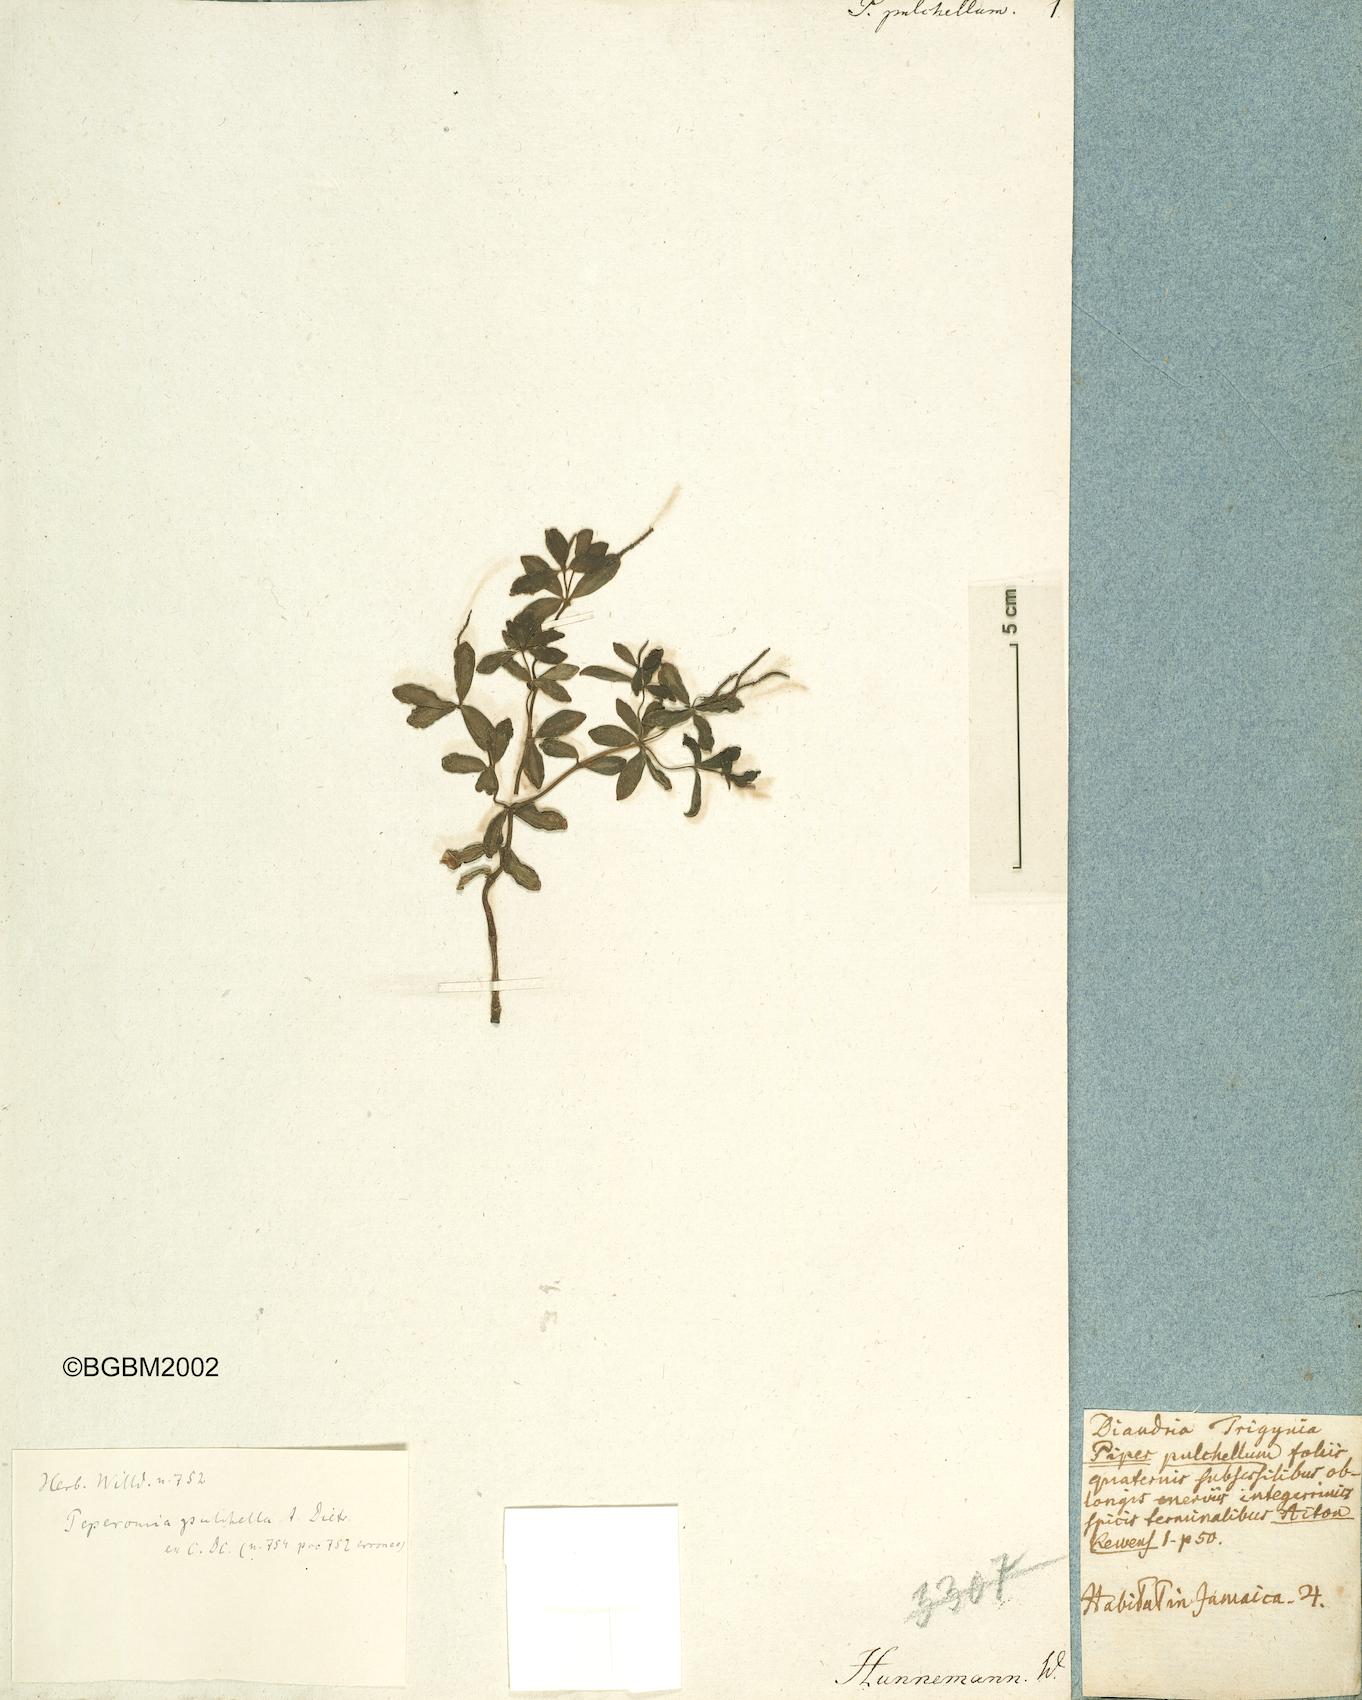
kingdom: Plantae
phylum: Tracheophyta
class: Magnoliopsida
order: Piperales
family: Piperaceae
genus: Peperomia
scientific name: Peperomia verticillata
